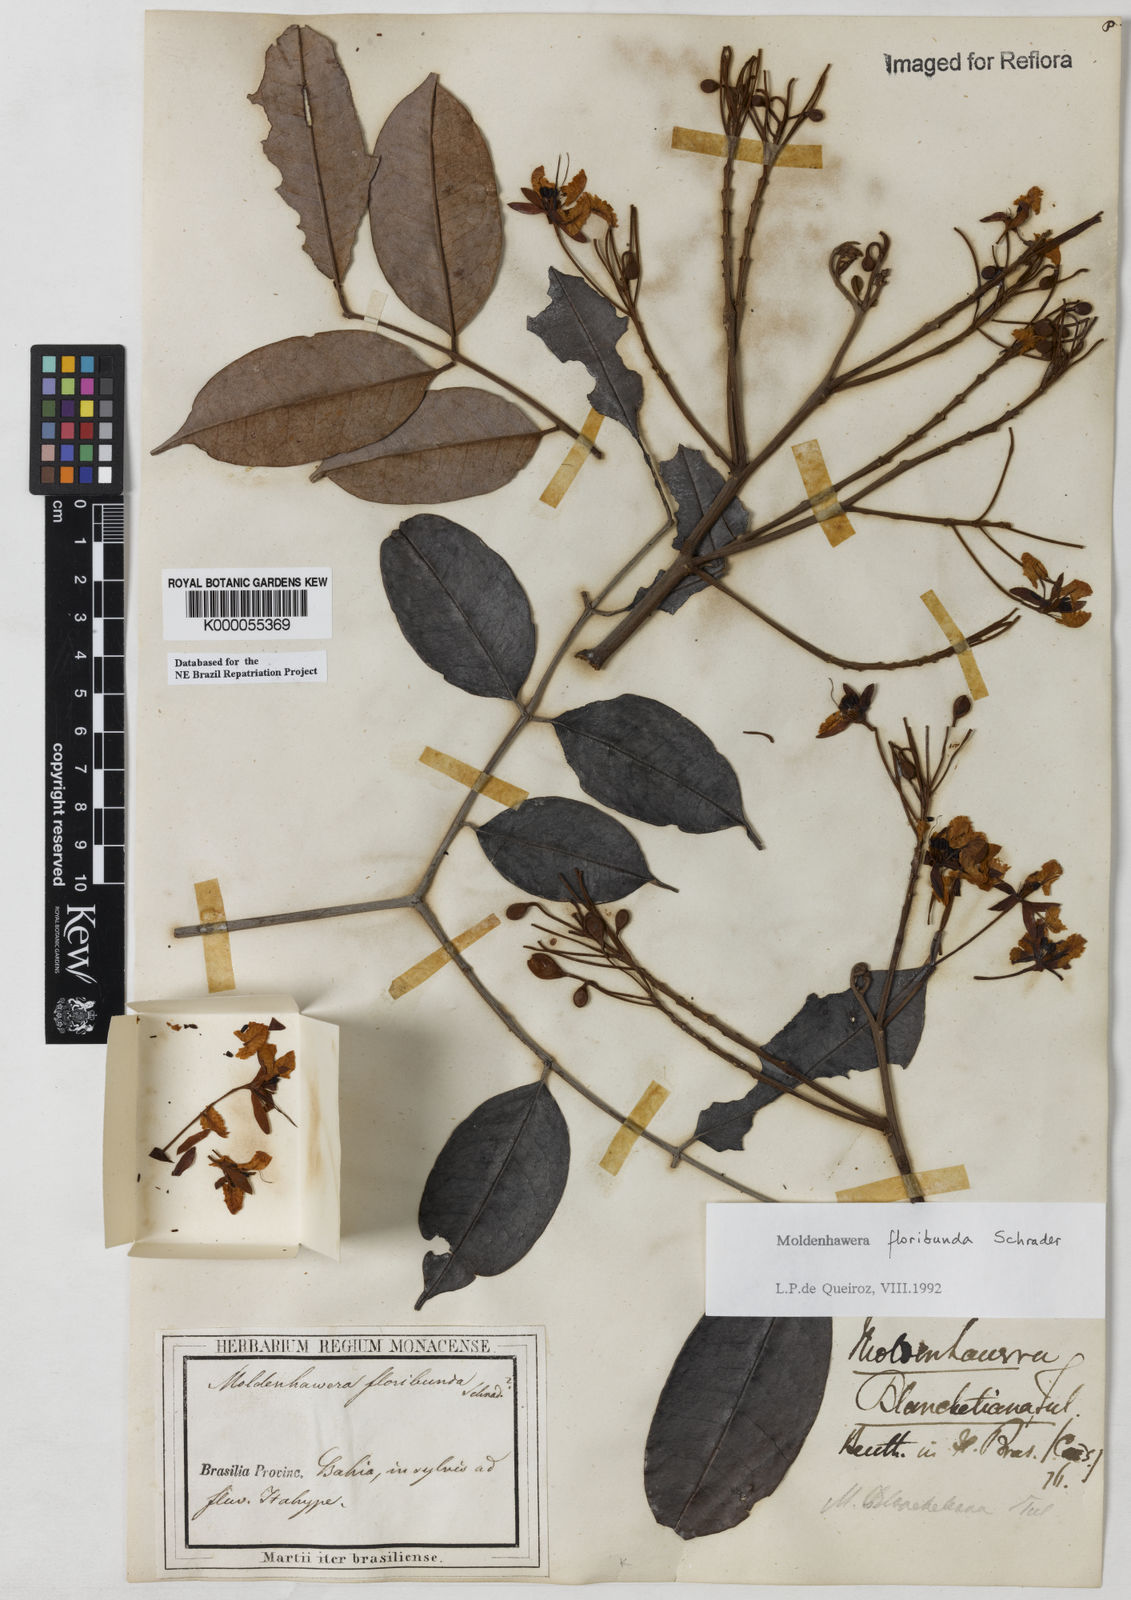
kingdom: Plantae
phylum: Tracheophyta
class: Magnoliopsida
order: Fabales
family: Fabaceae
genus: Moldenhawera
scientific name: Moldenhawera floribunda
